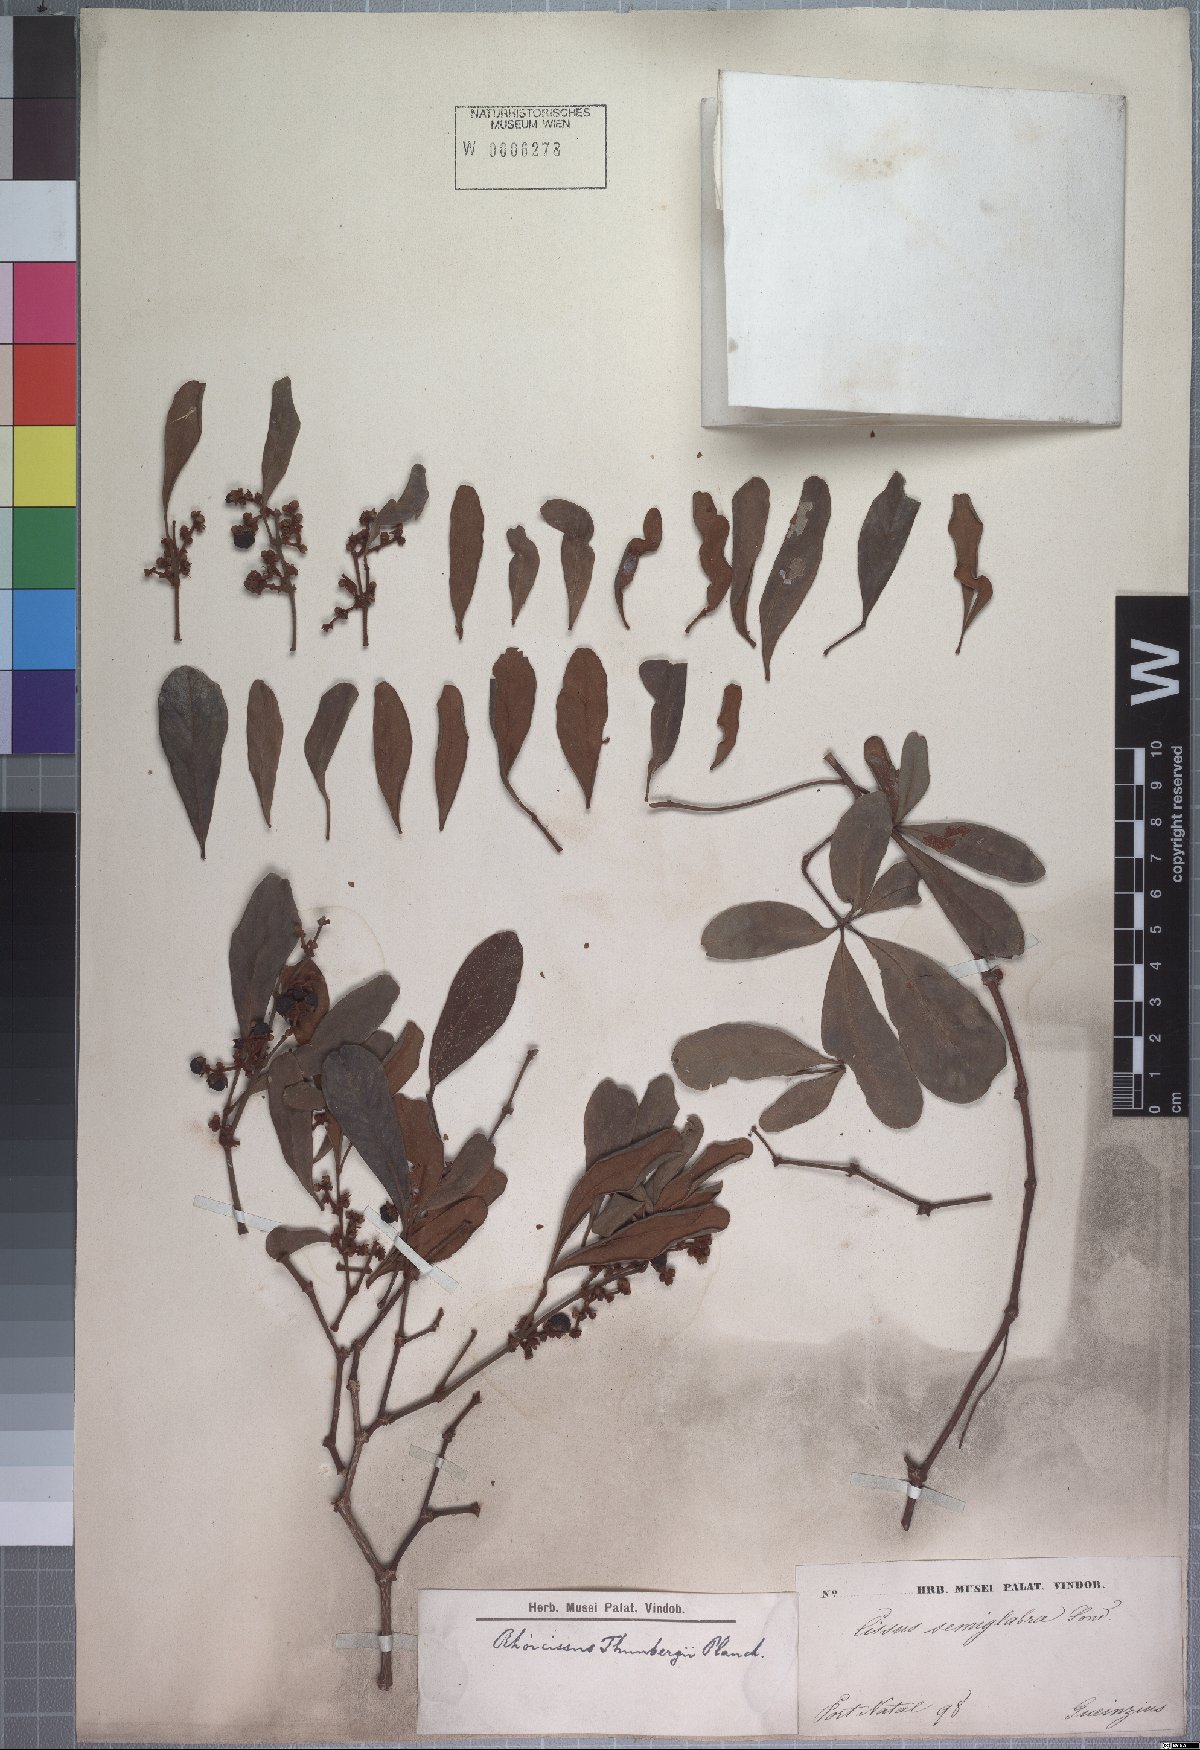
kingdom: Plantae
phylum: Tracheophyta
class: Magnoliopsida
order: Vitales
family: Vitaceae
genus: Vitis
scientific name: Vitis semiglabra
